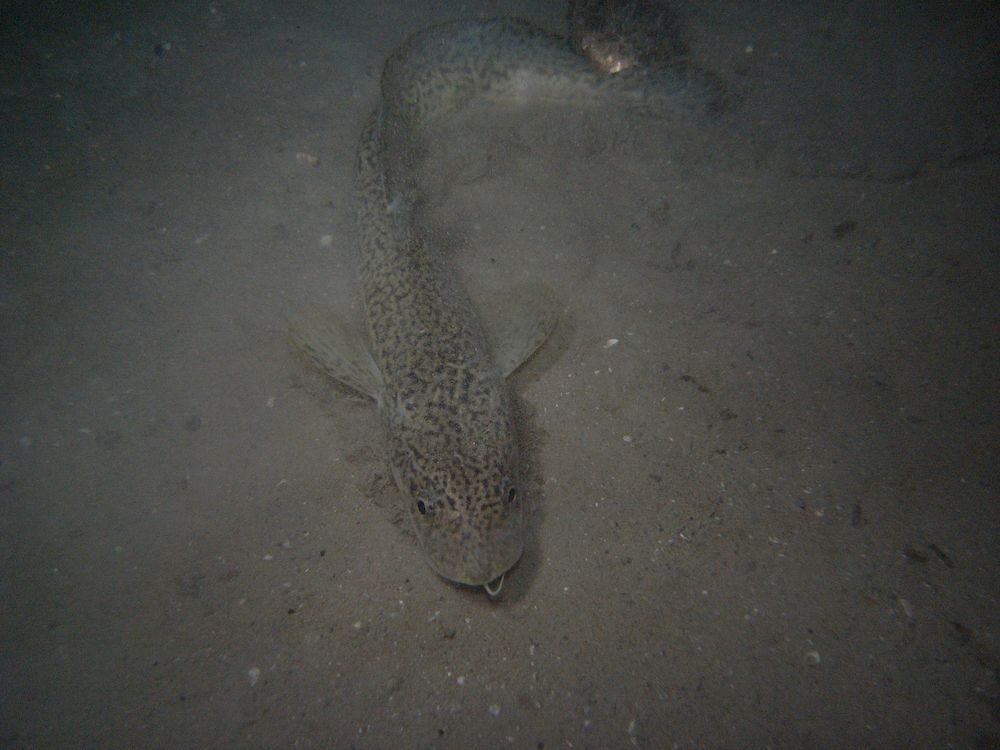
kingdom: Animalia
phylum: Chordata
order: Gadiformes
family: Lotidae
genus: Lota
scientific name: Lota lota
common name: Burbot
